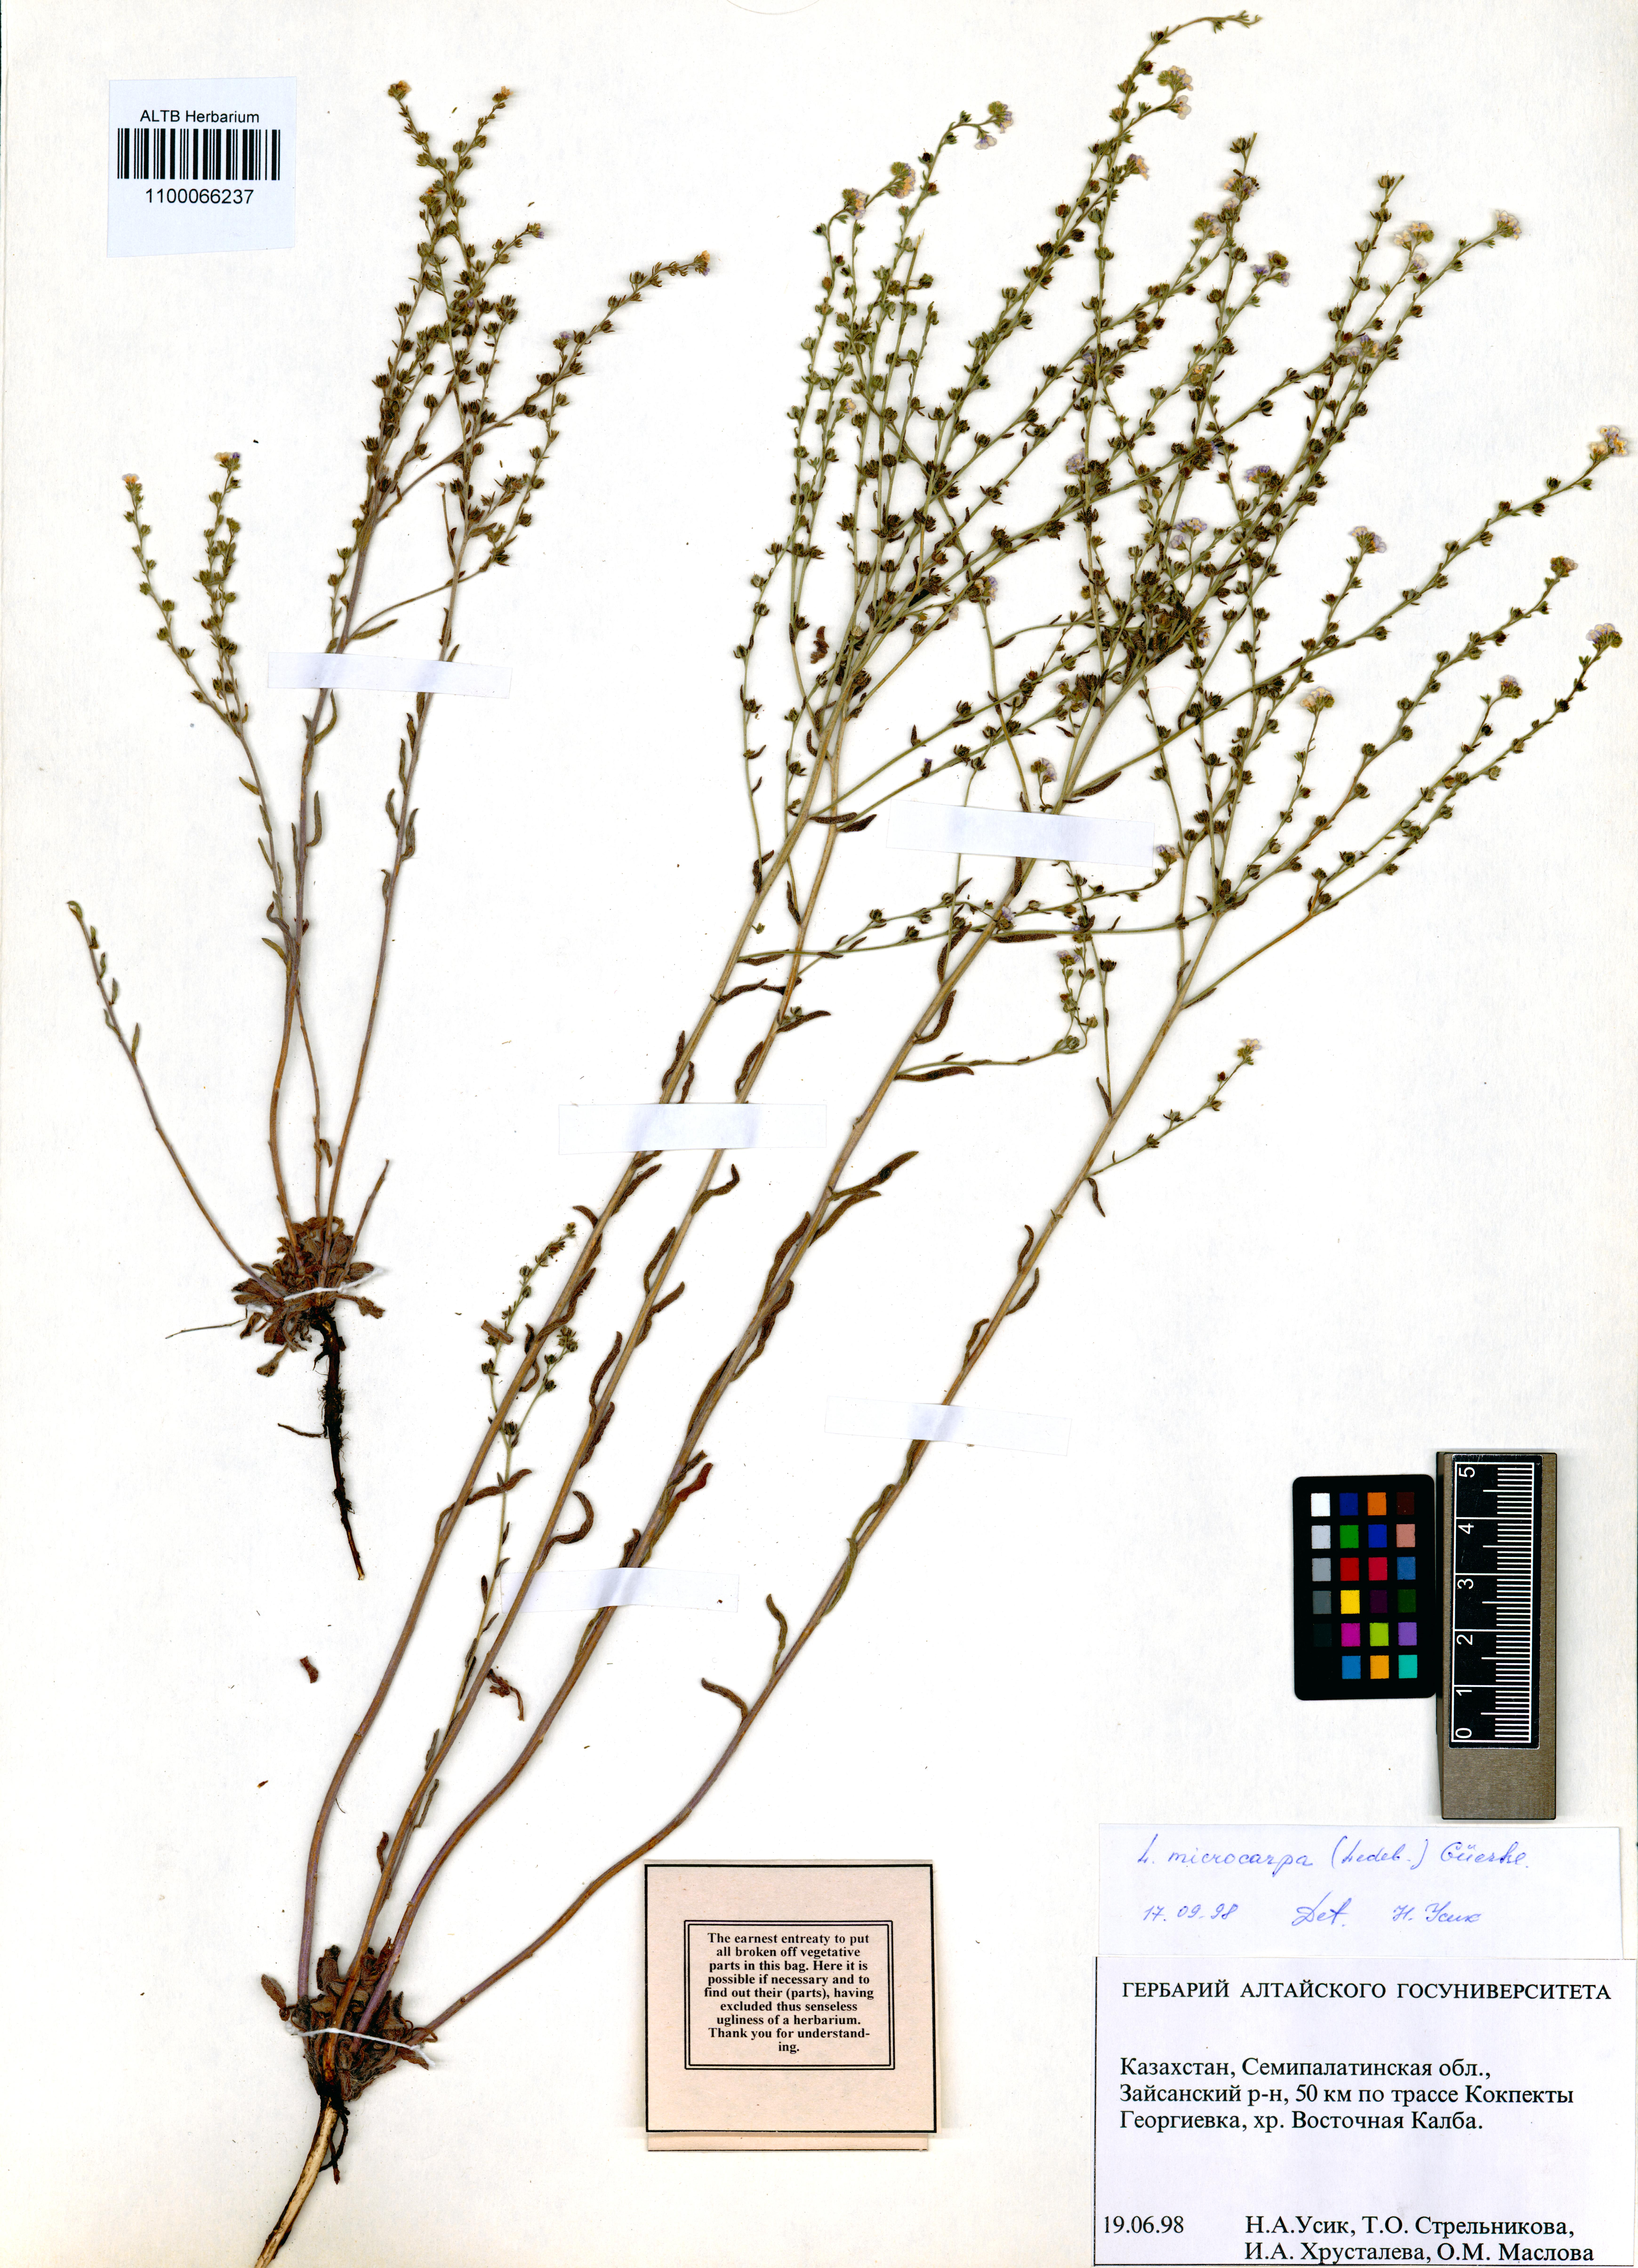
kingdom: Plantae
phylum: Tracheophyta
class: Magnoliopsida
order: Boraginales
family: Boraginaceae
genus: Lappula
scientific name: Lappula microcarpa
